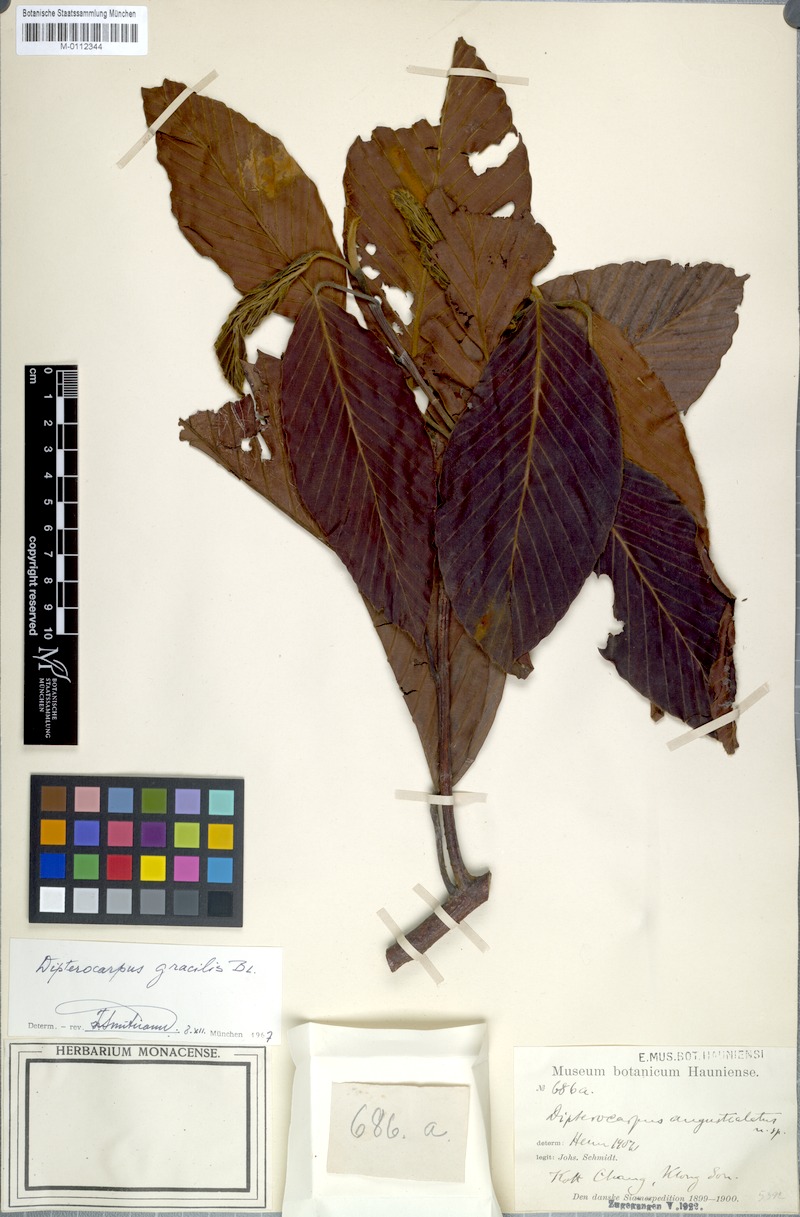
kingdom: Plantae
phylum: Tracheophyta
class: Magnoliopsida
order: Malvales
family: Dipterocarpaceae
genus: Dipterocarpus
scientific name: Dipterocarpus gracilis
